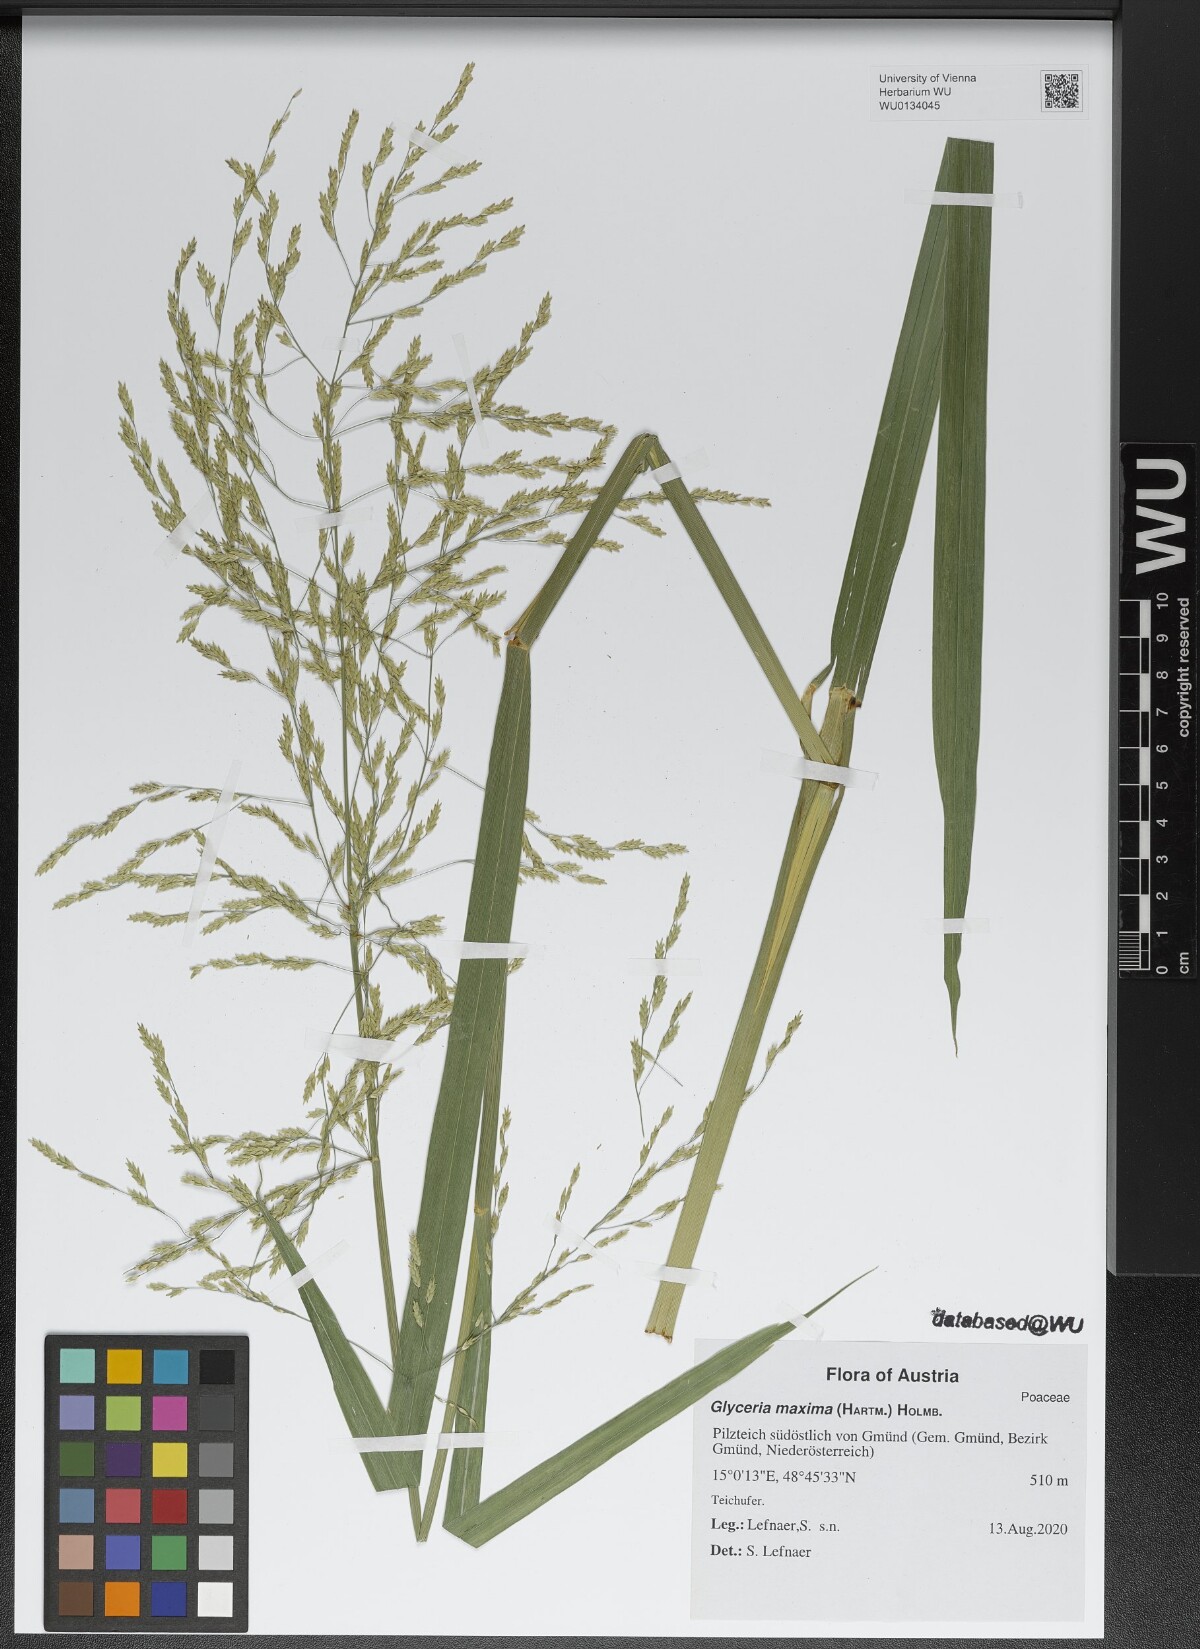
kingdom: Plantae
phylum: Tracheophyta
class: Liliopsida
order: Poales
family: Poaceae
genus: Glyceria
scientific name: Glyceria maxima
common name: Reed mannagrass
